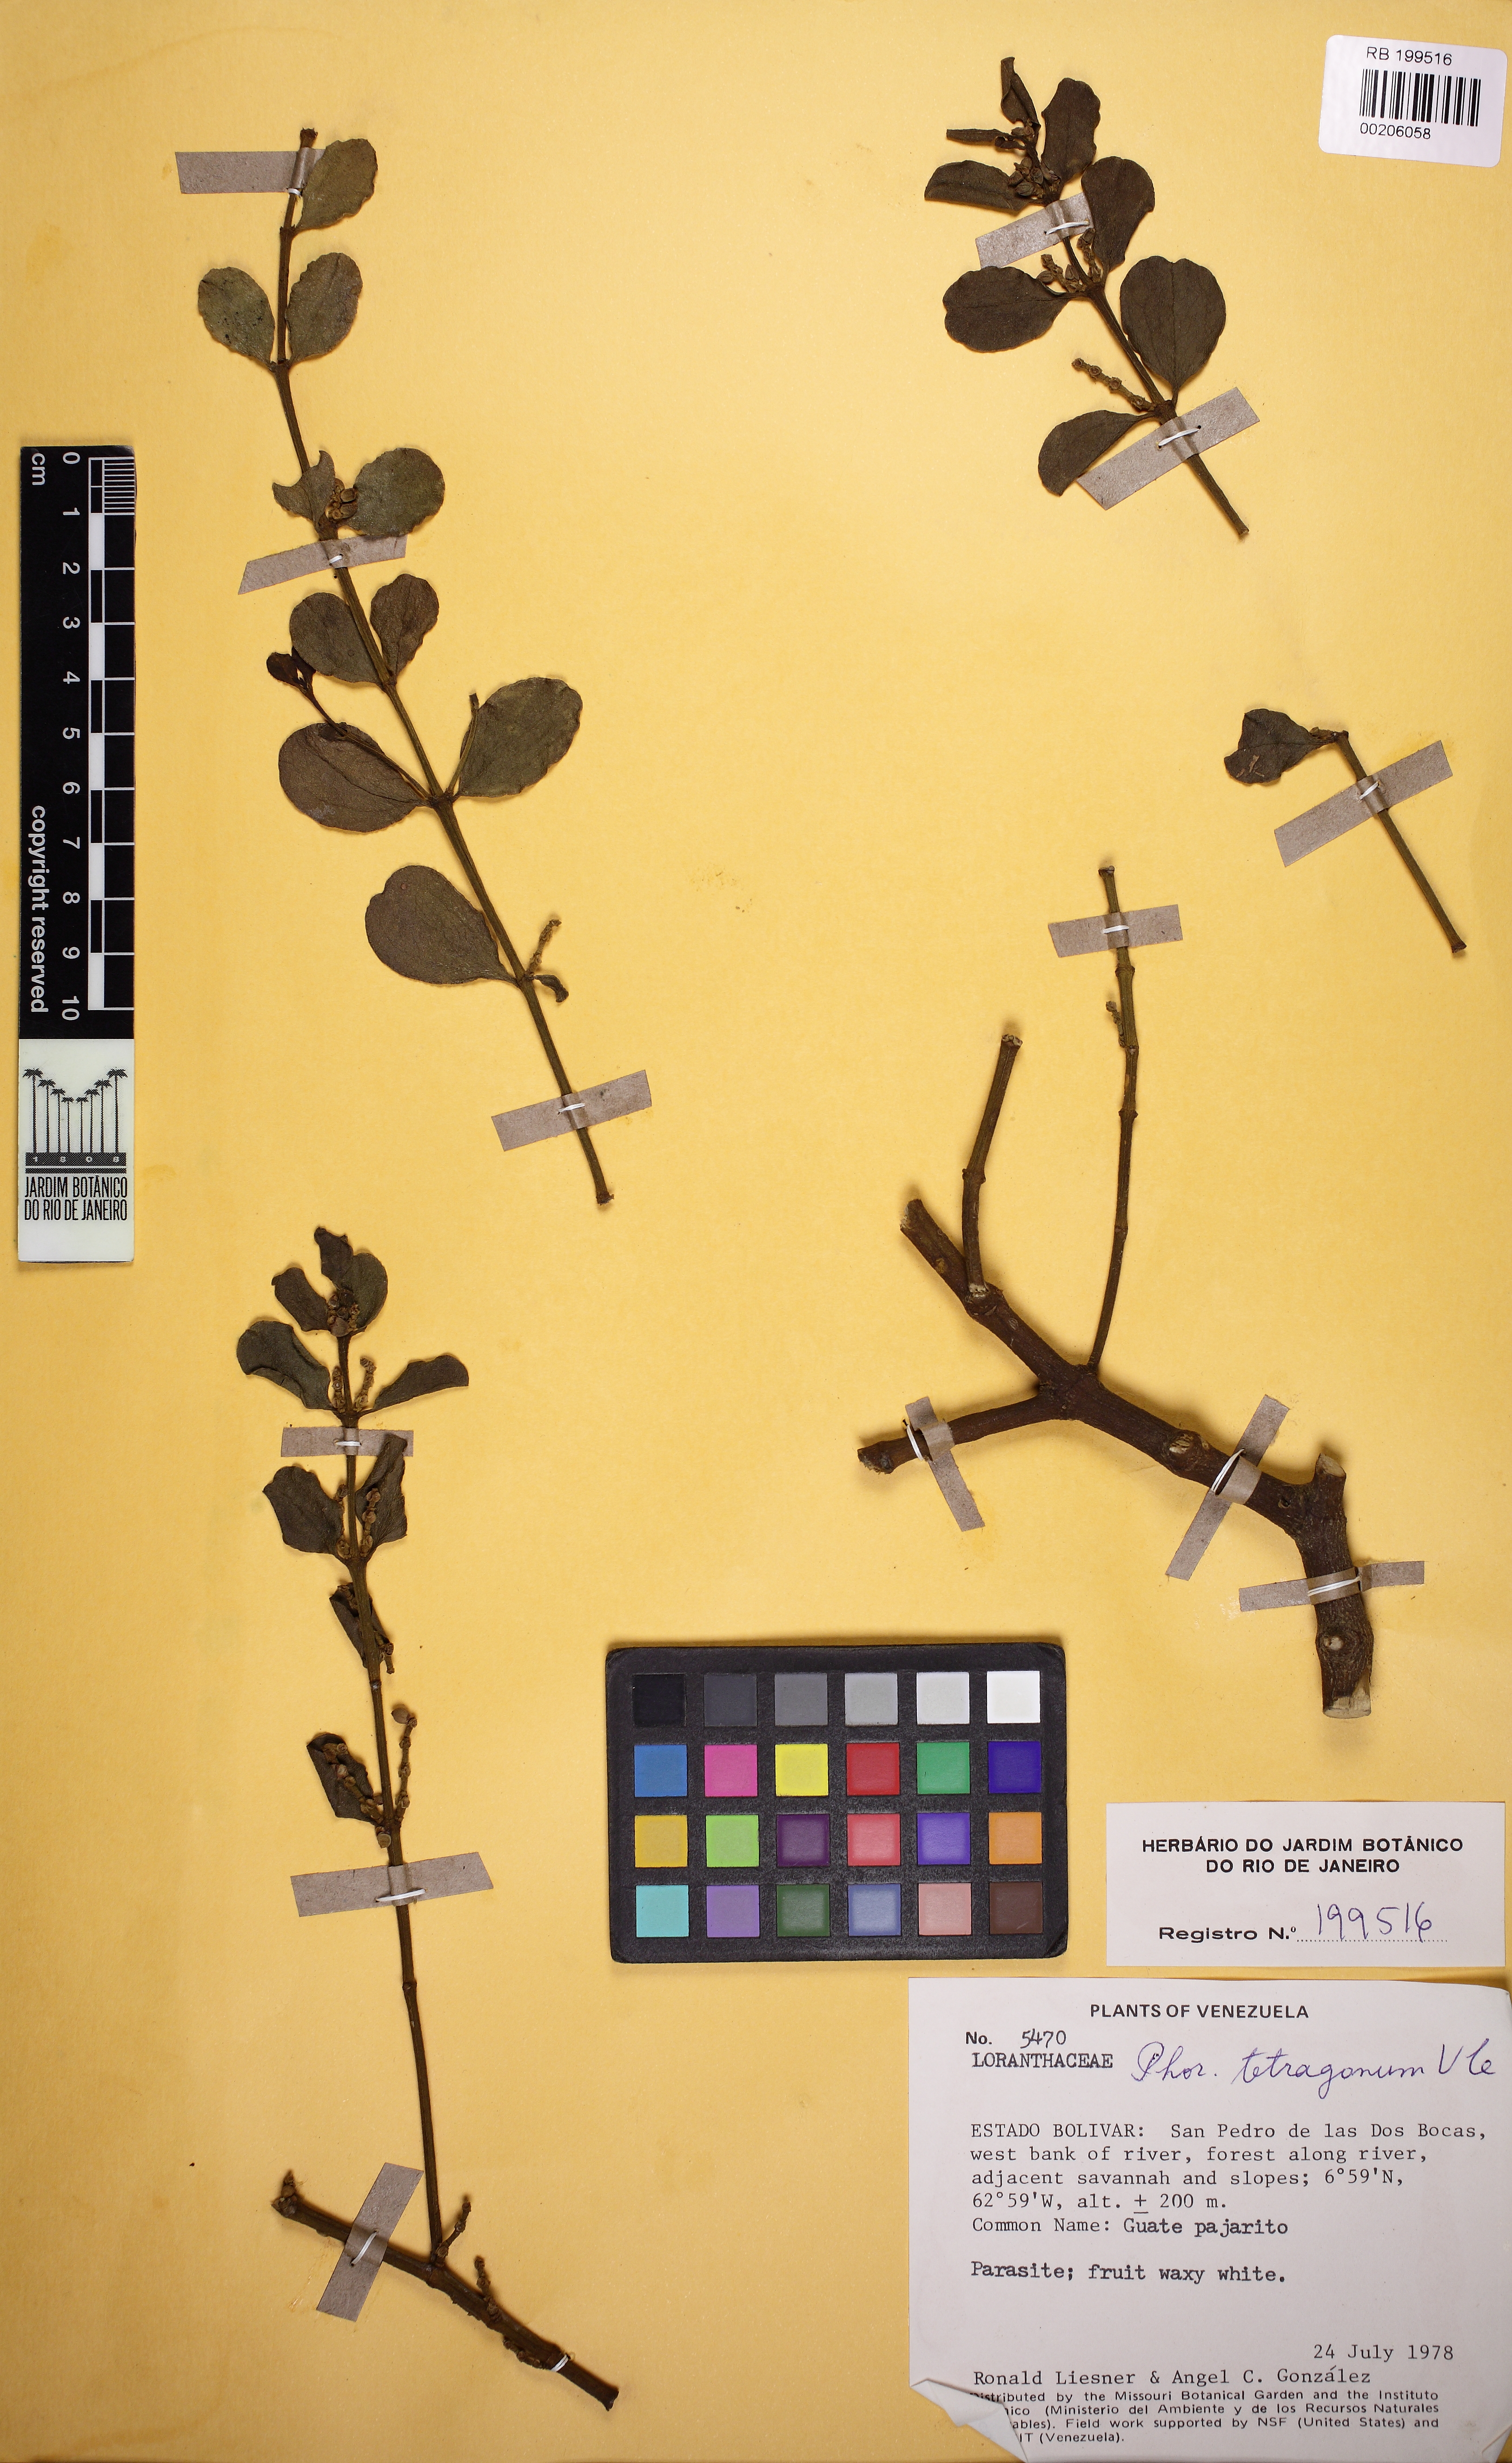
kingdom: Plantae
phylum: Tracheophyta
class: Magnoliopsida
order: Santalales
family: Viscaceae
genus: Phoradendron
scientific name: Phoradendron mucronatum
